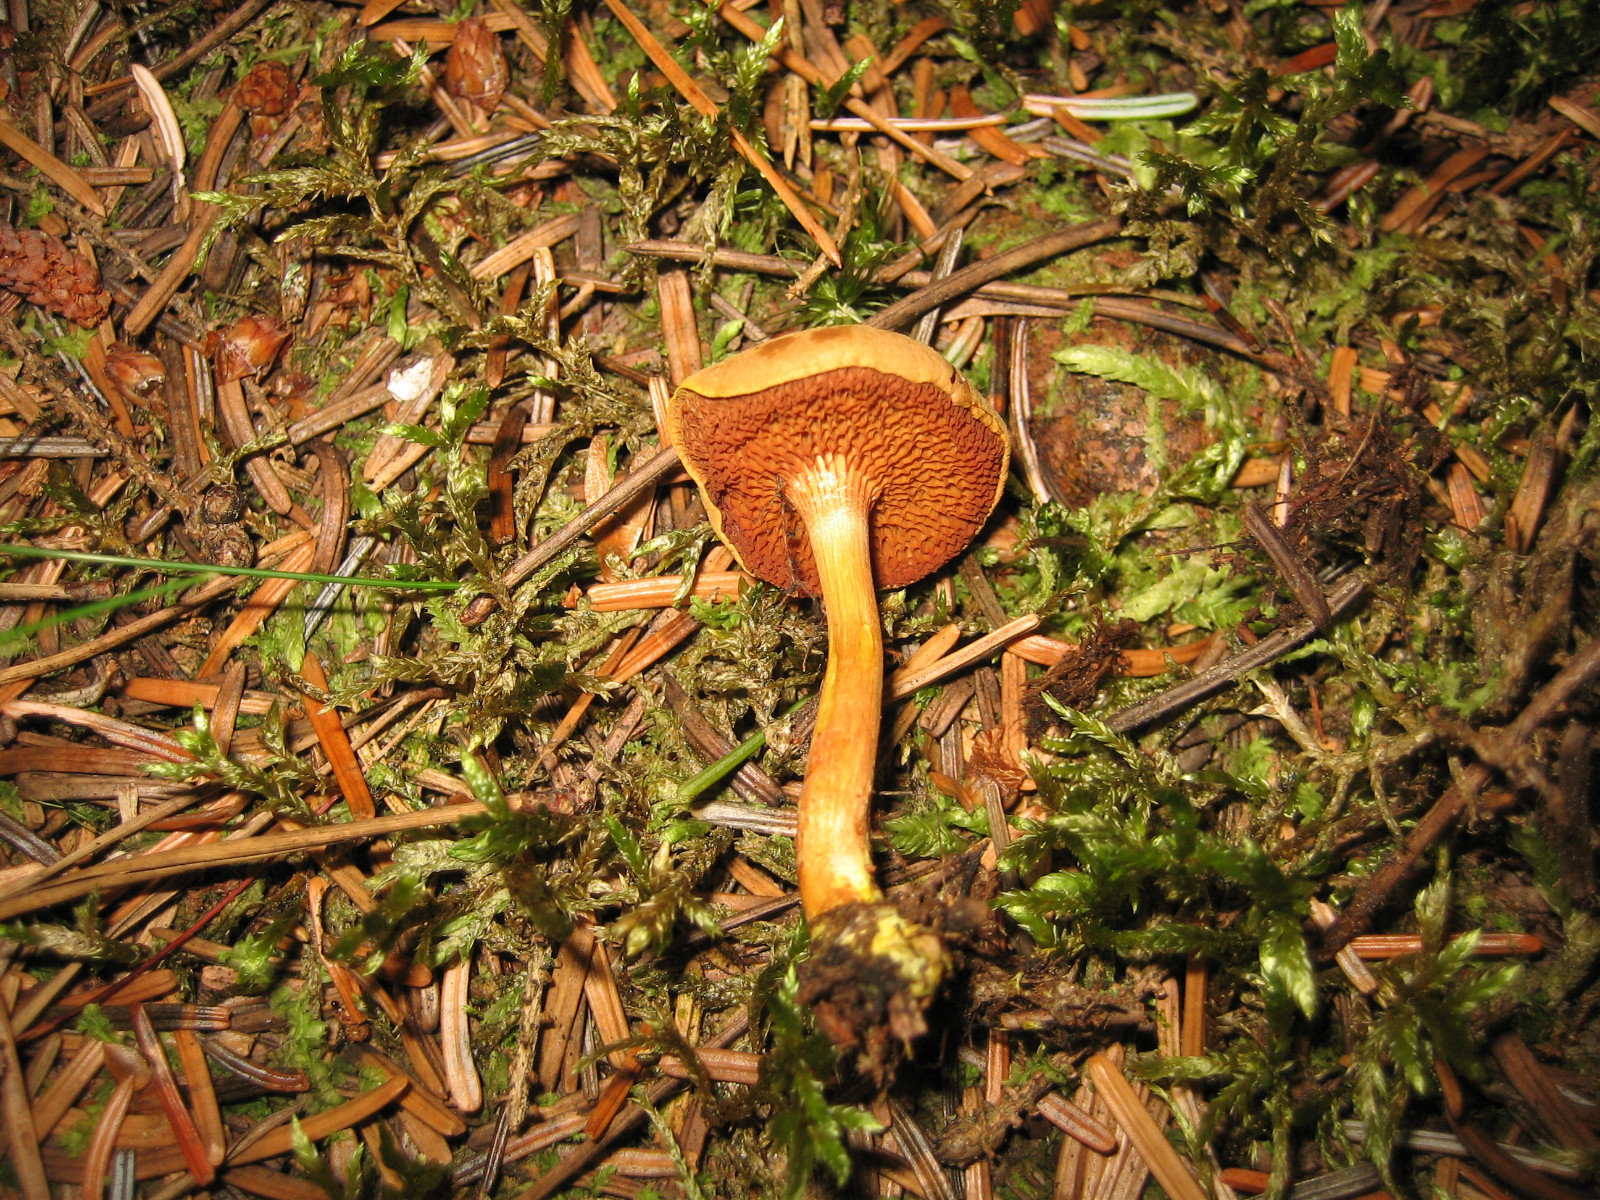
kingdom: Fungi
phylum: Basidiomycota
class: Agaricomycetes
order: Boletales
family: Boletaceae
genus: Chalciporus
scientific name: Chalciporus piperatus
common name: peberrørhat
